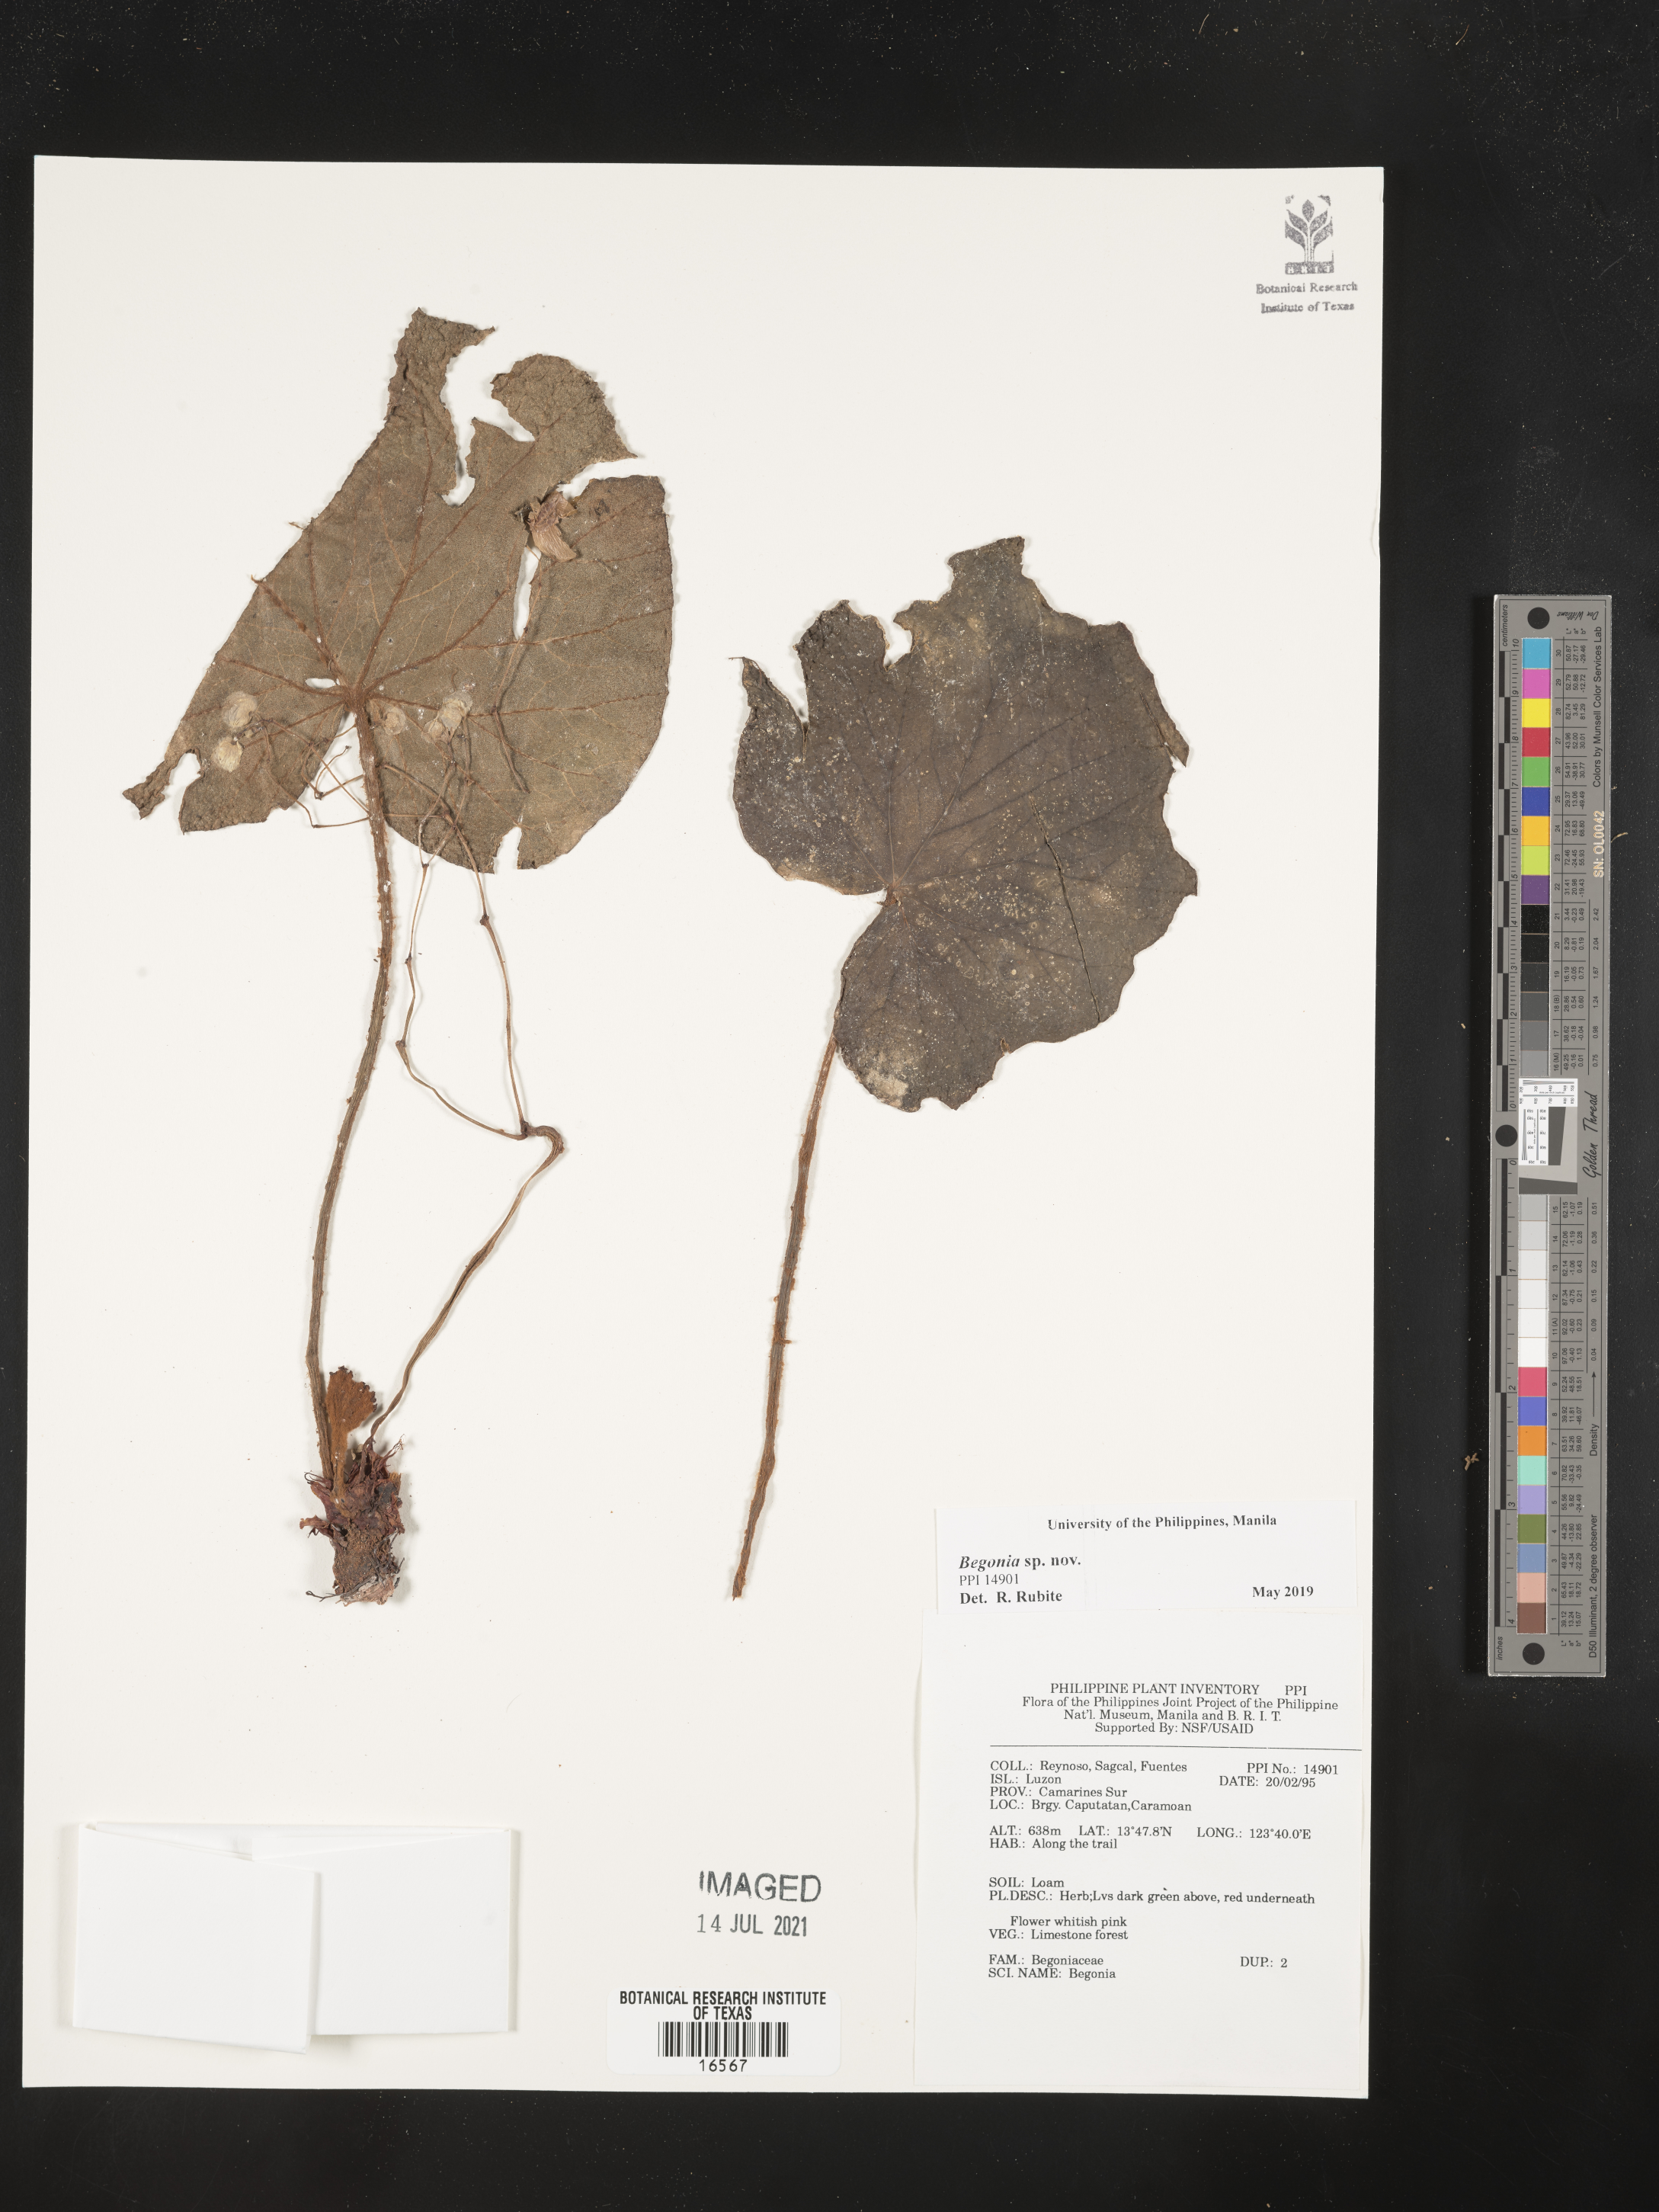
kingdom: Plantae
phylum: Tracheophyta
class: Magnoliopsida
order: Cucurbitales
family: Begoniaceae
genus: Begonia
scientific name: Begonia
